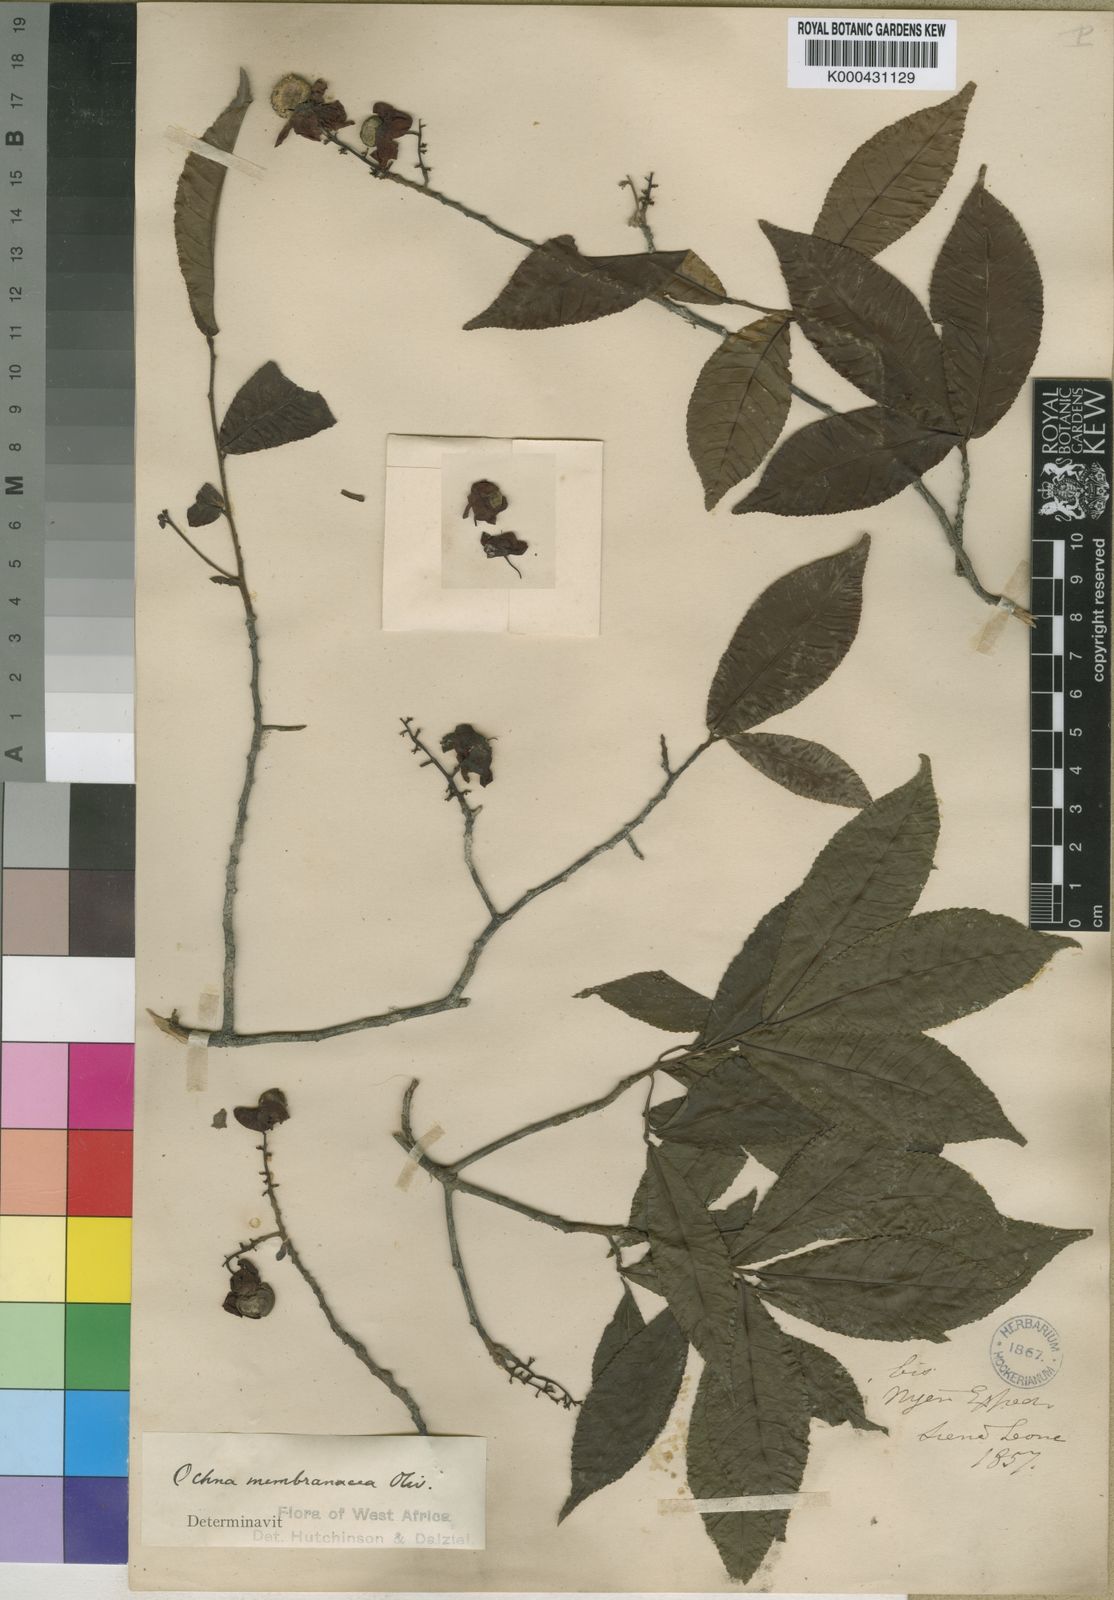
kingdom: Plantae
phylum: Tracheophyta
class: Magnoliopsida
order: Malpighiales
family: Ochnaceae
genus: Ochna
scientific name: Ochna membranacea
